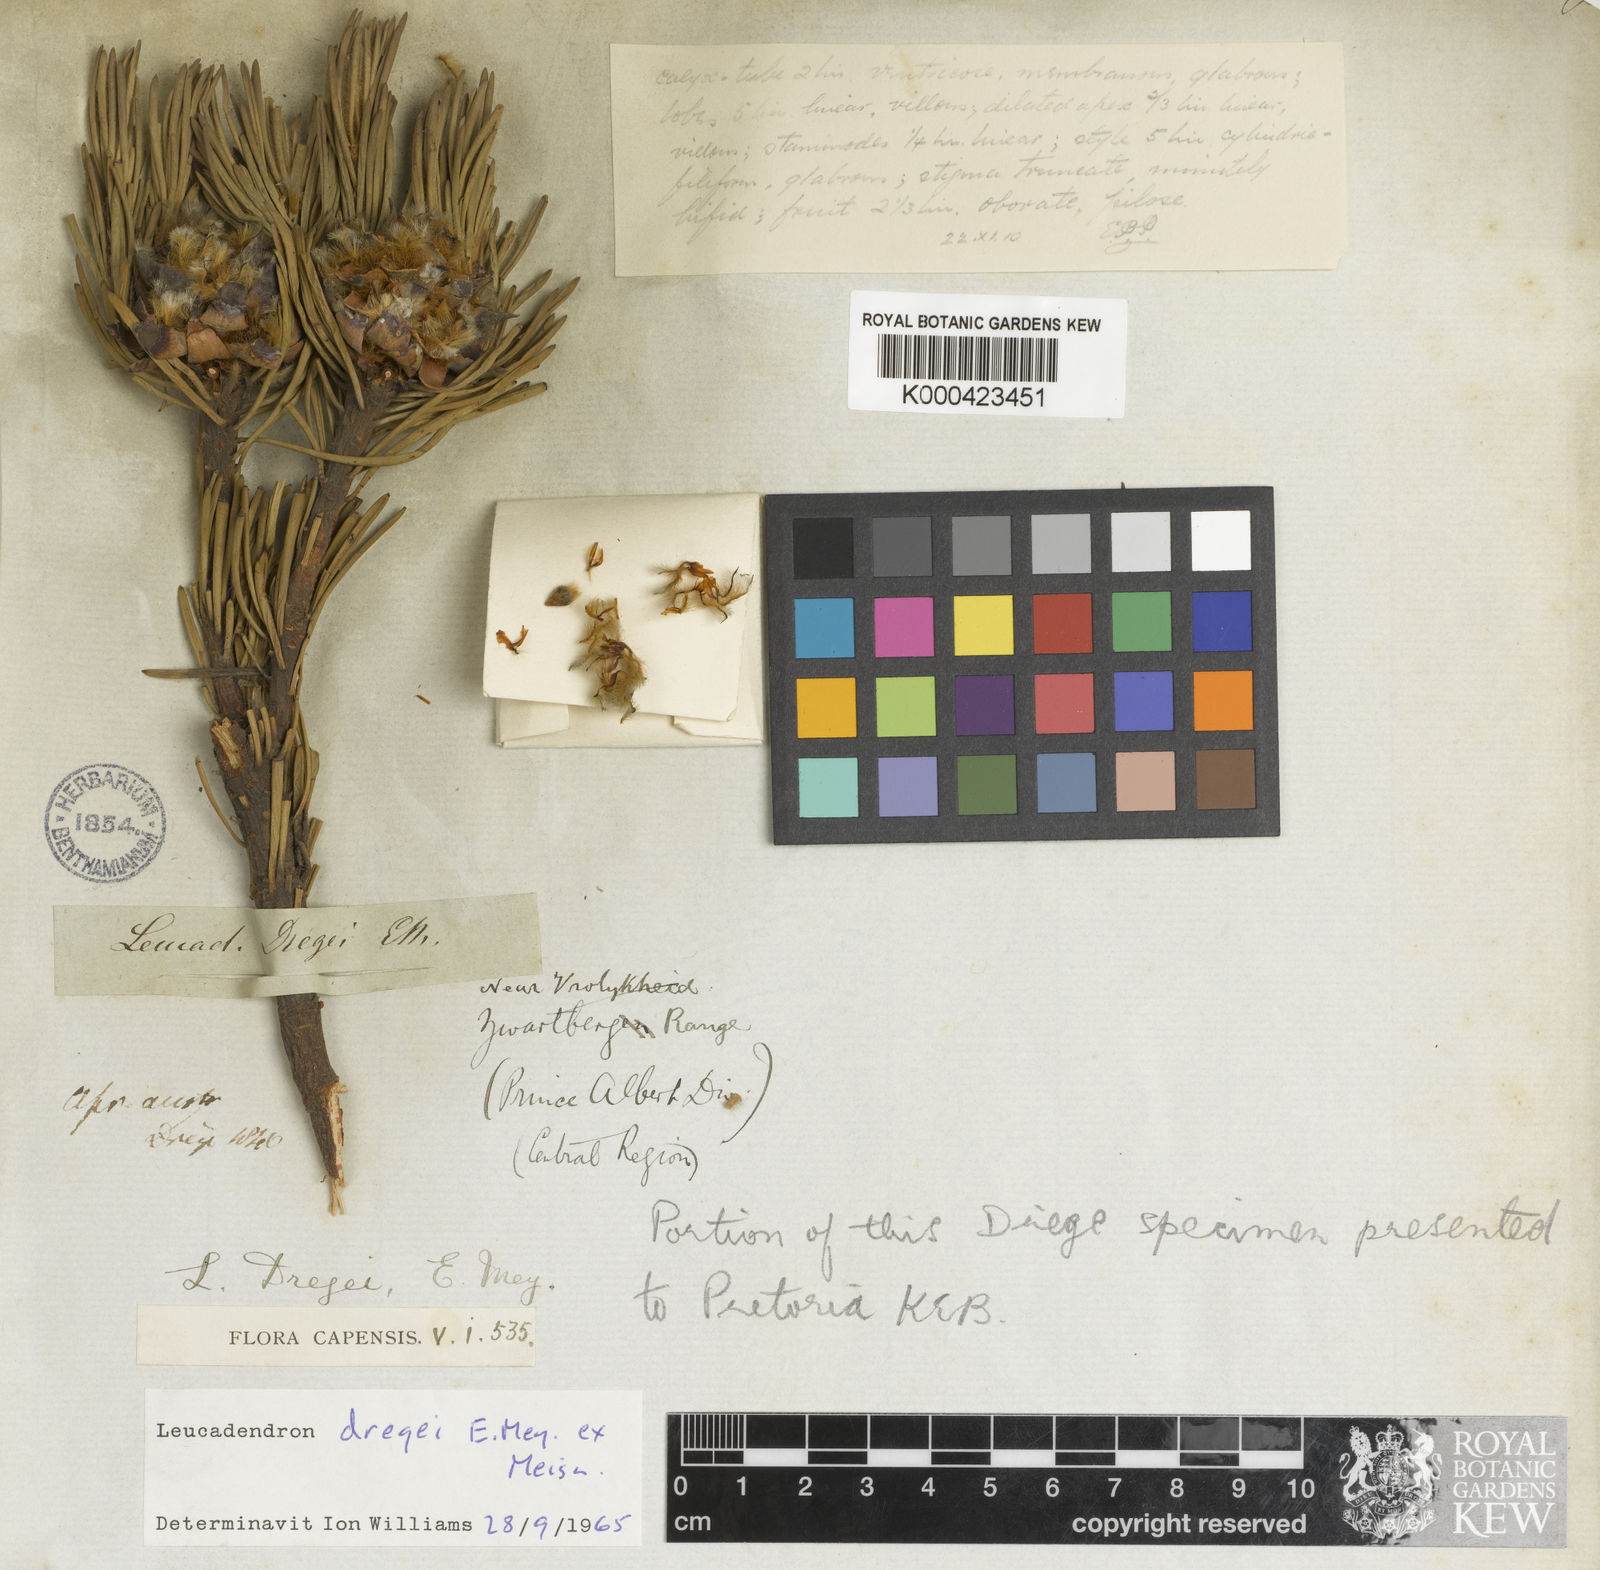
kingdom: Plantae
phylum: Tracheophyta
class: Magnoliopsida
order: Proteales
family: Proteaceae
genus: Leucadendron
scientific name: Leucadendron dregei
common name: Summit conebush
